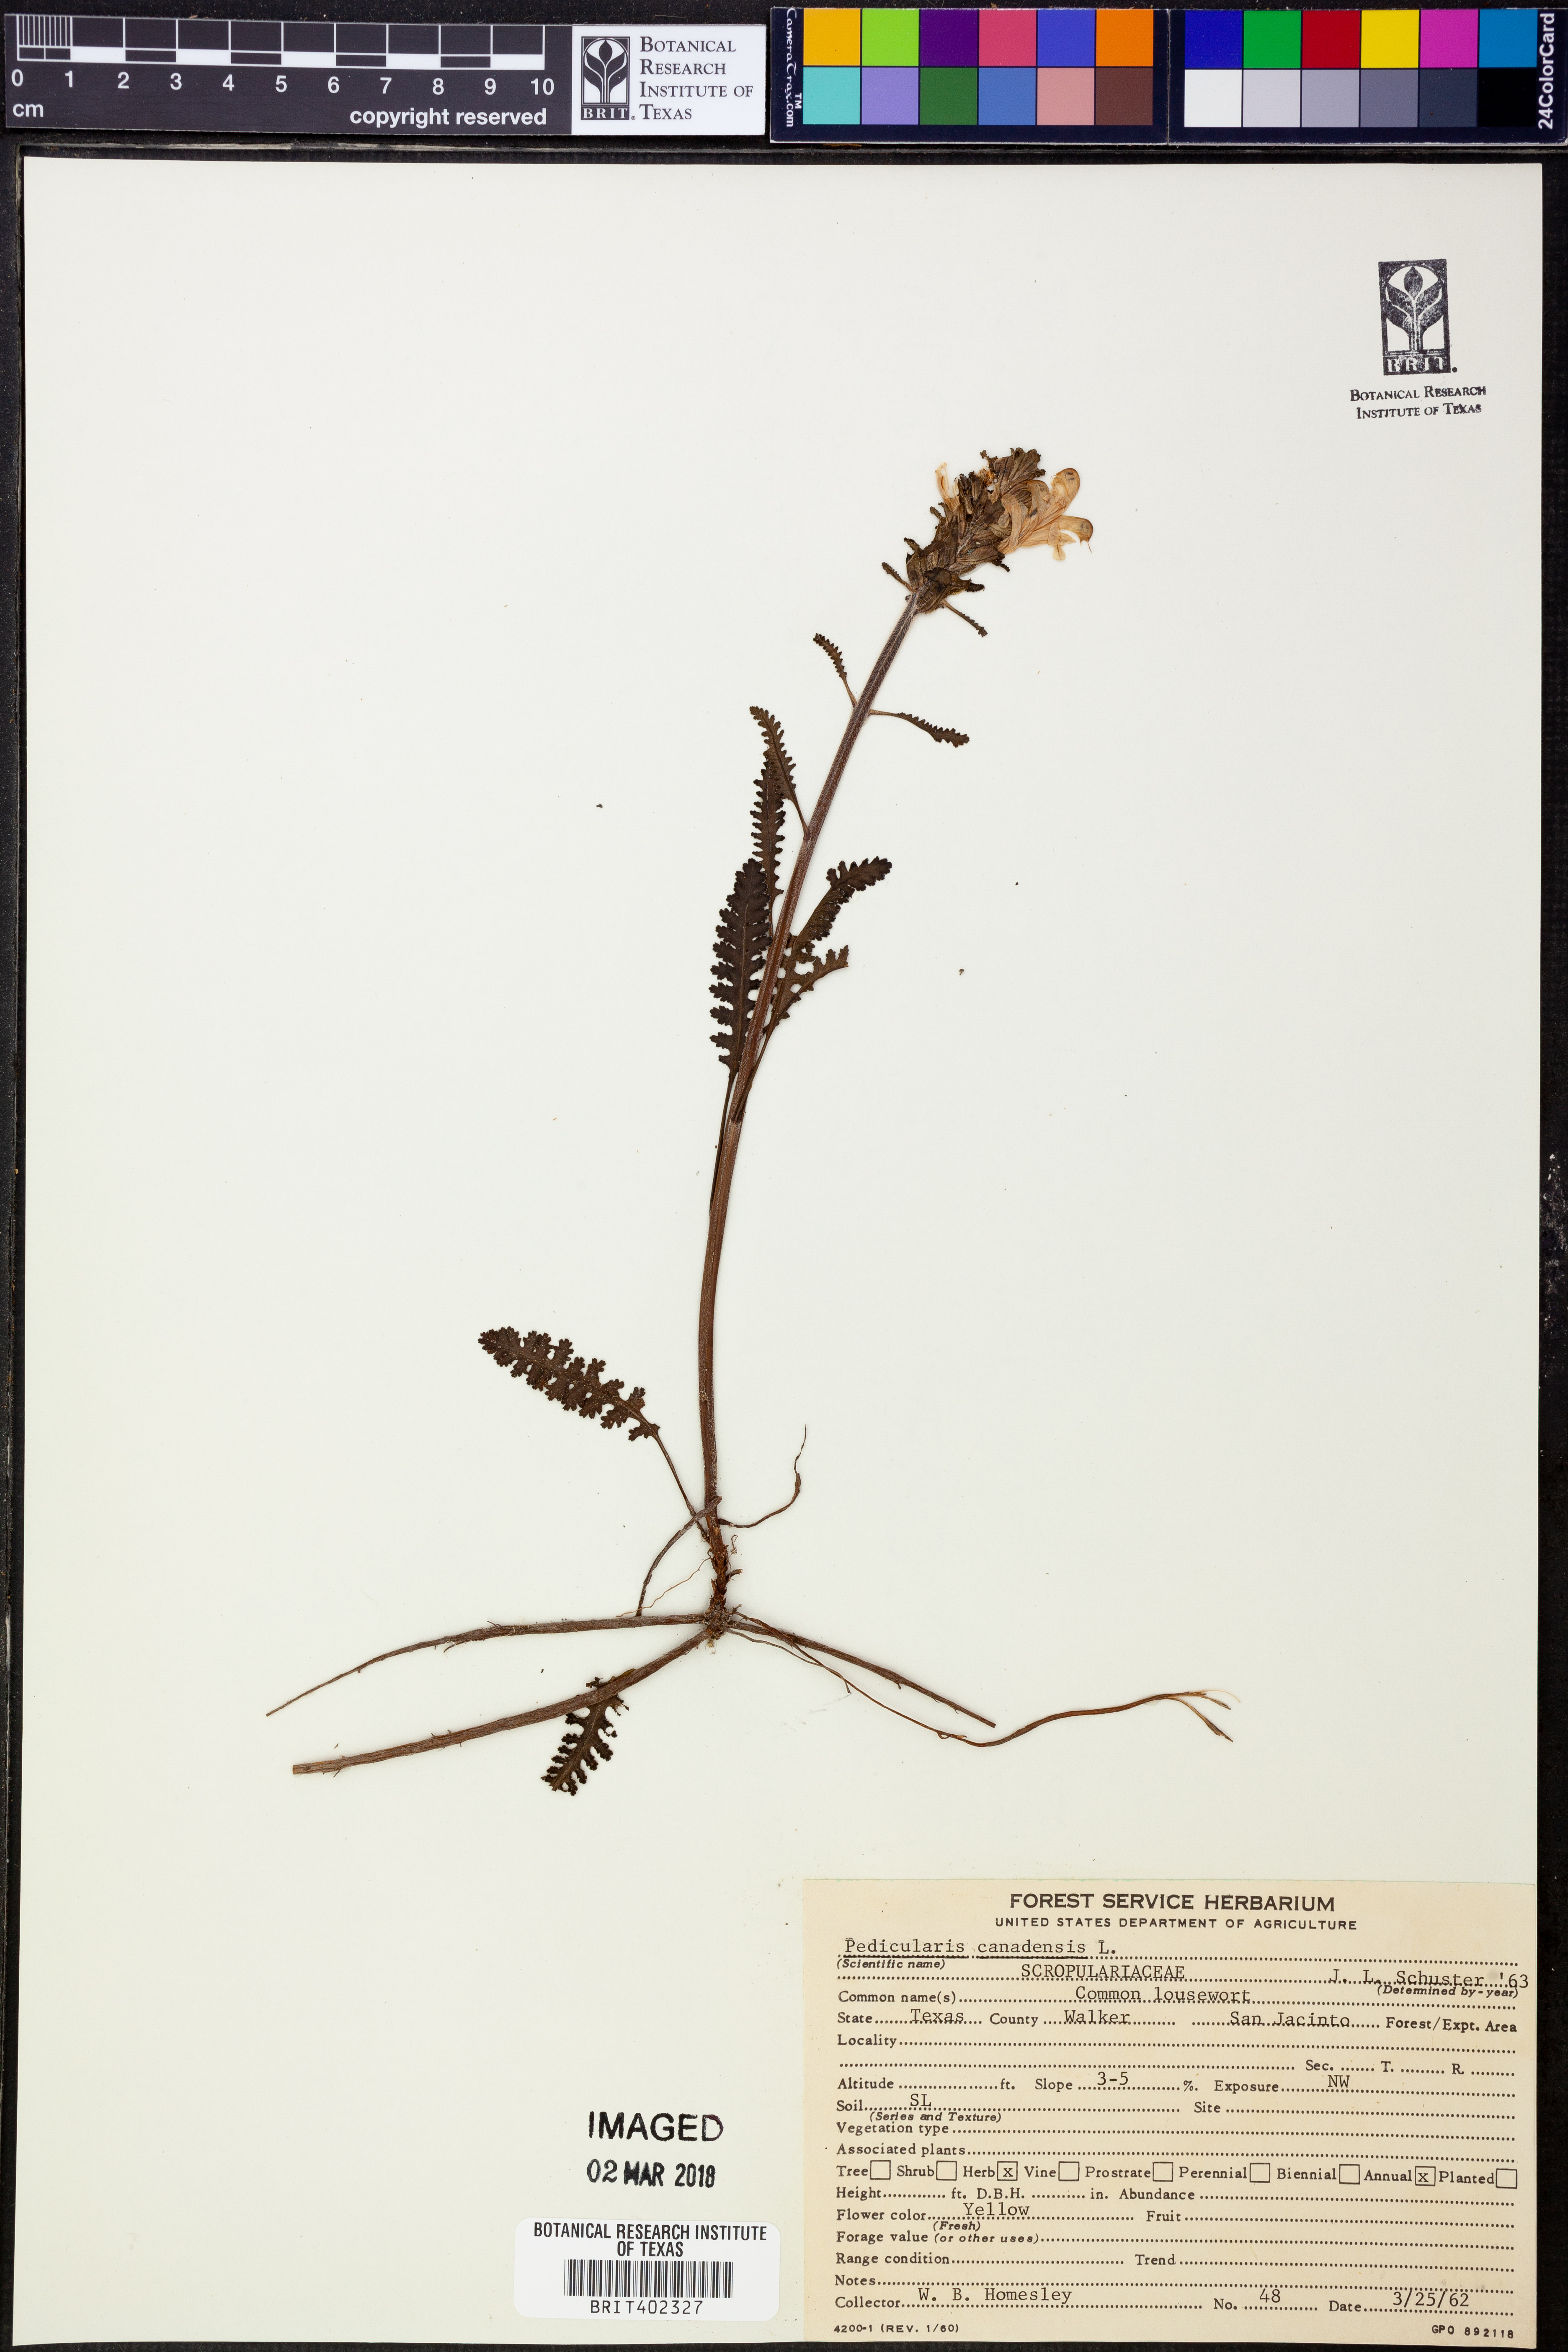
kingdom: Plantae
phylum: Tracheophyta
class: Magnoliopsida
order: Lamiales
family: Orobanchaceae
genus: Pedicularis
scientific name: Pedicularis canadensis
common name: Early lousewort
